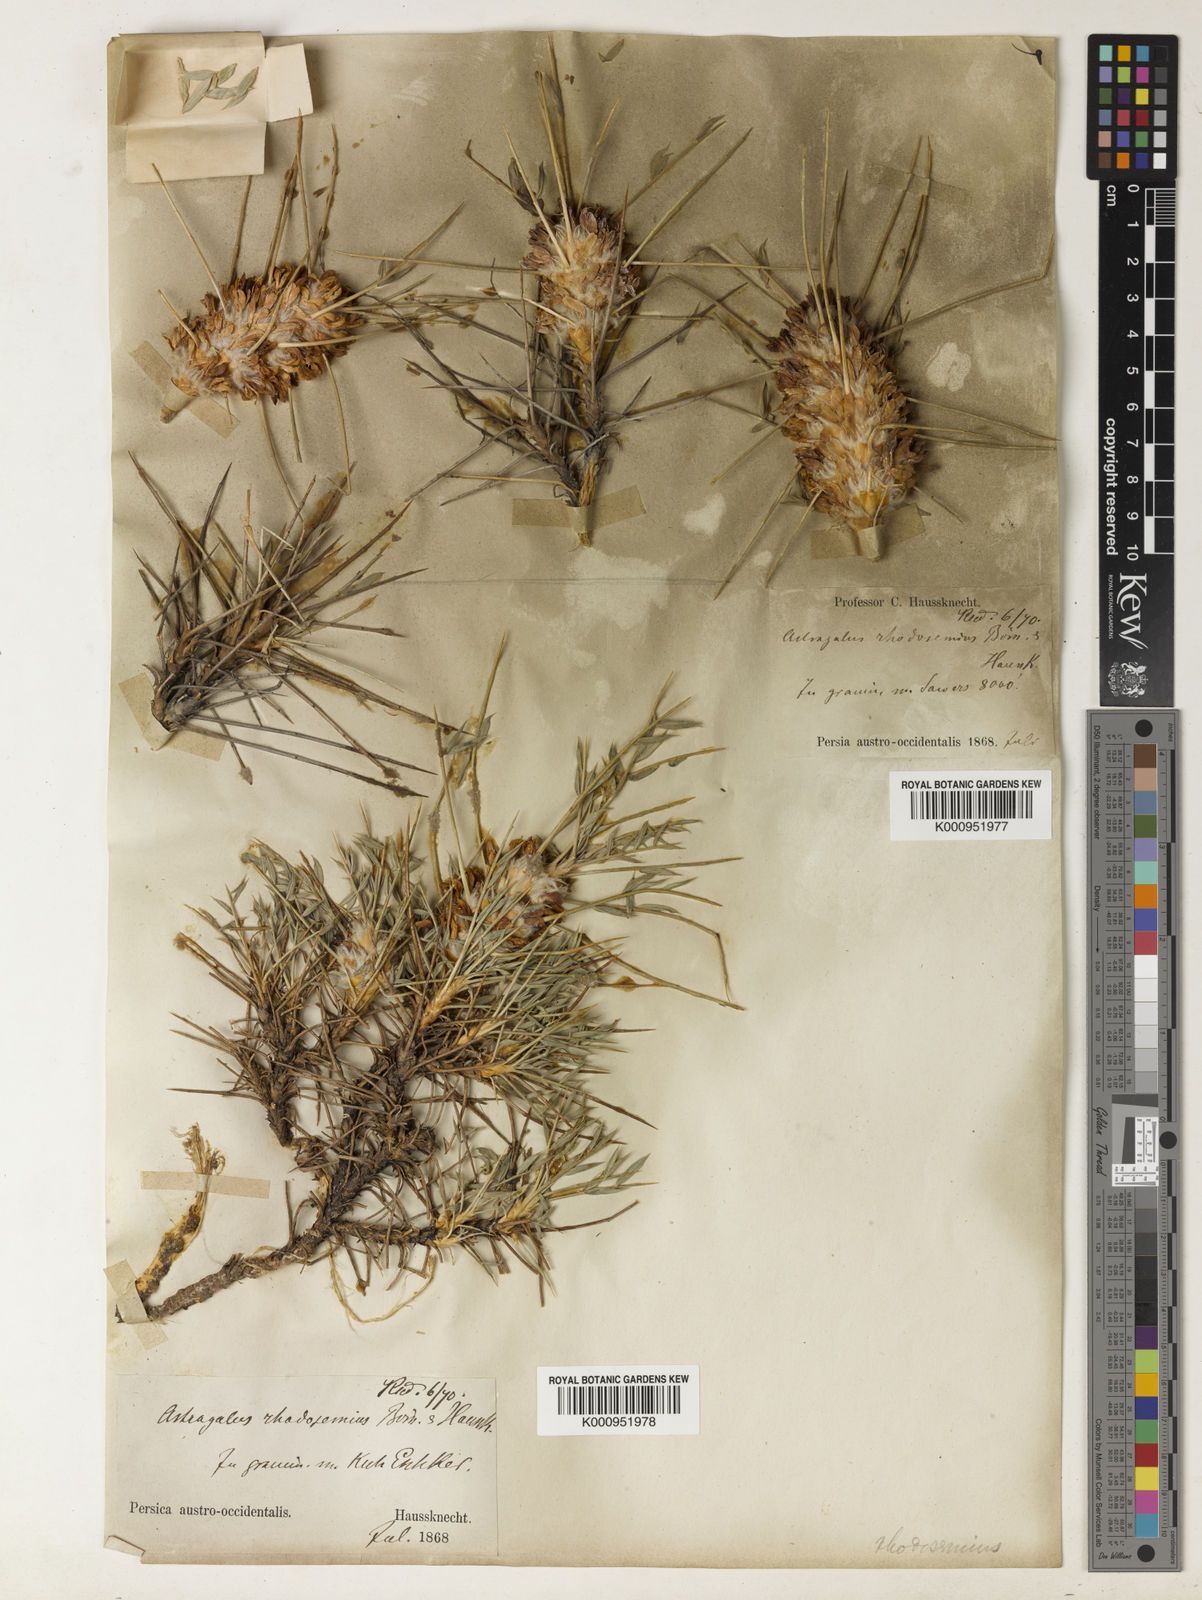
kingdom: Plantae
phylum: Tracheophyta
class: Magnoliopsida
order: Fabales
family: Fabaceae
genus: Astragalus
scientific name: Astragalus rhodosemius
